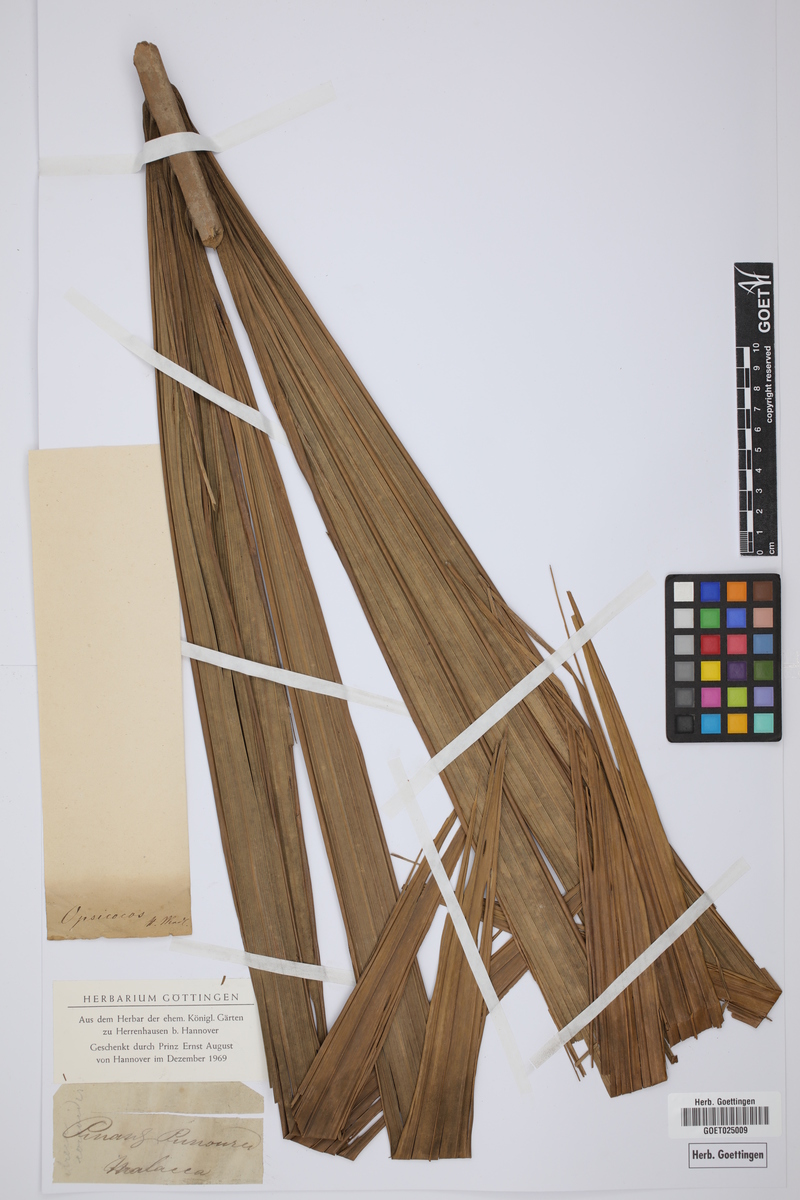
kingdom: Plantae
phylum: Tracheophyta
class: Liliopsida
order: Arecales
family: Arecaceae
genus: Pinanga
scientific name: Pinanga
